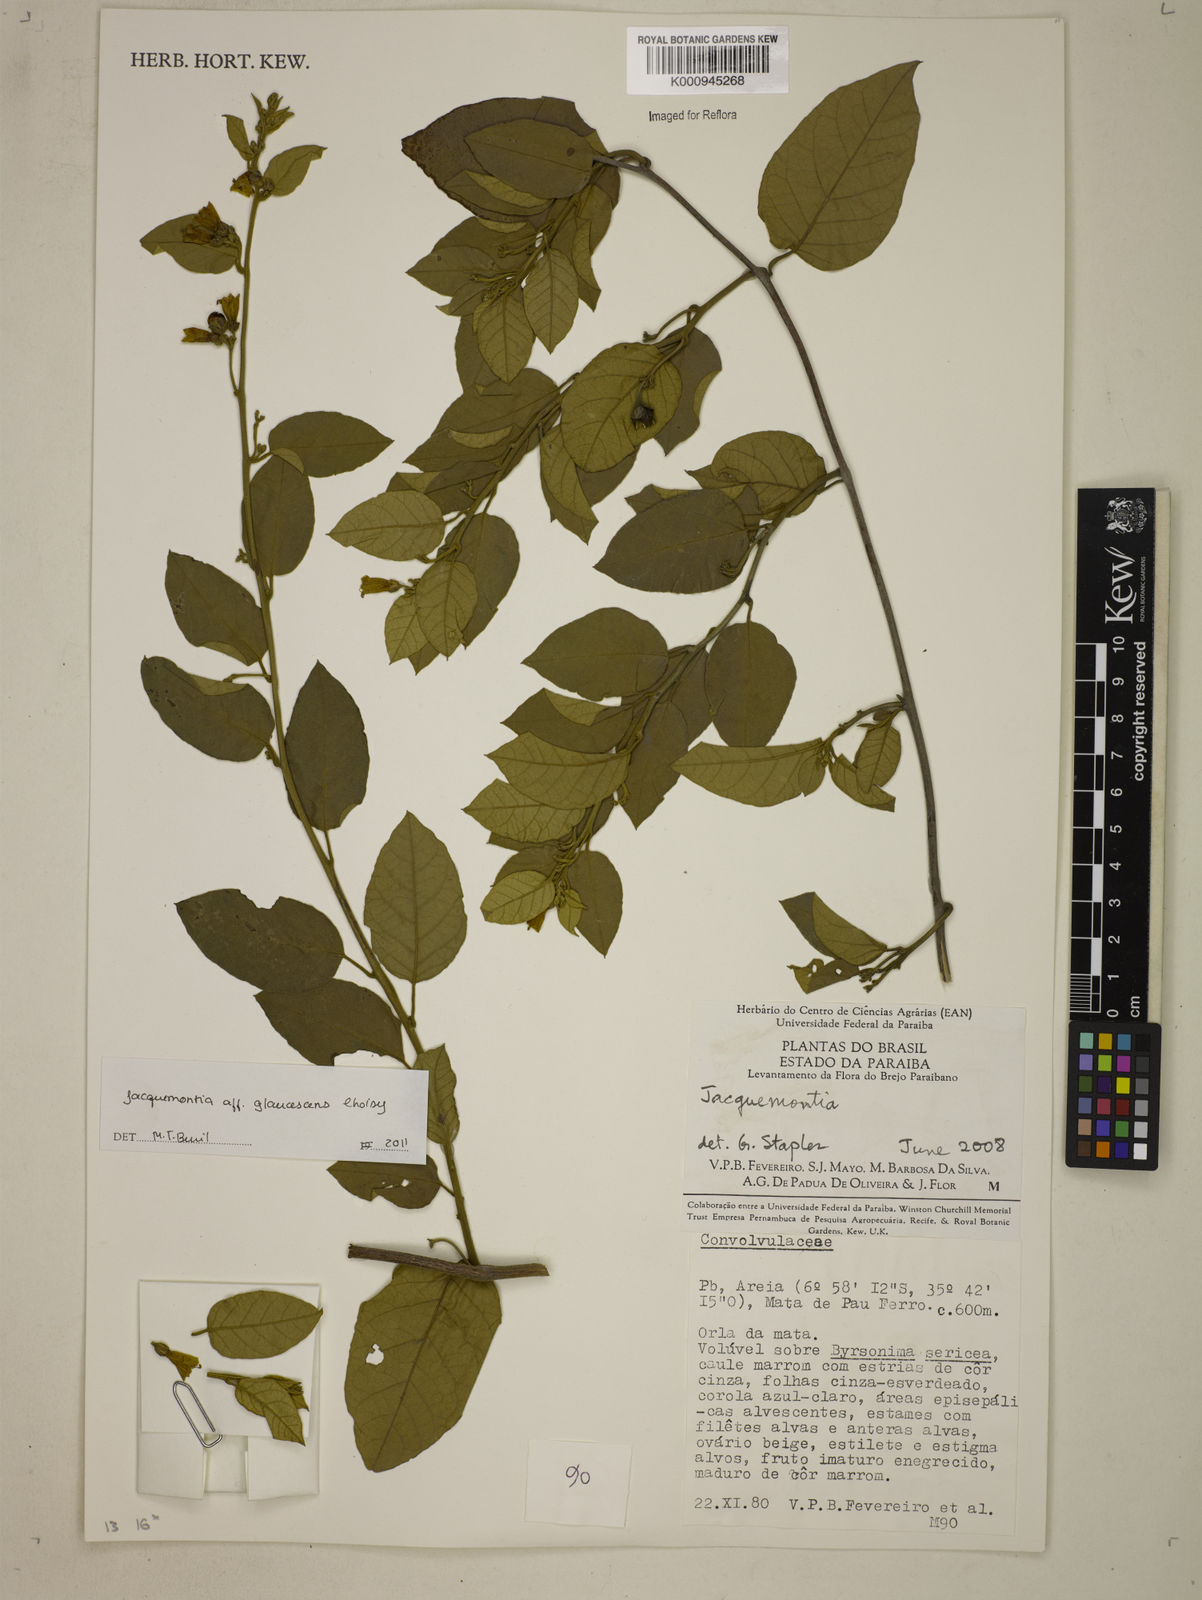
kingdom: Plantae
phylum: Tracheophyta
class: Magnoliopsida
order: Solanales
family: Convolvulaceae
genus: Jacquemontia
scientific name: Jacquemontia glaucescens
